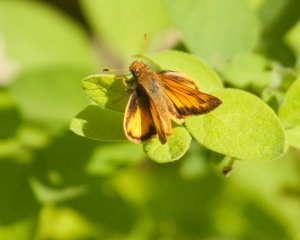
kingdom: Animalia
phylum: Arthropoda
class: Insecta
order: Lepidoptera
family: Hesperiidae
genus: Lon
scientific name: Lon zabulon
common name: Zabulon Skipper
